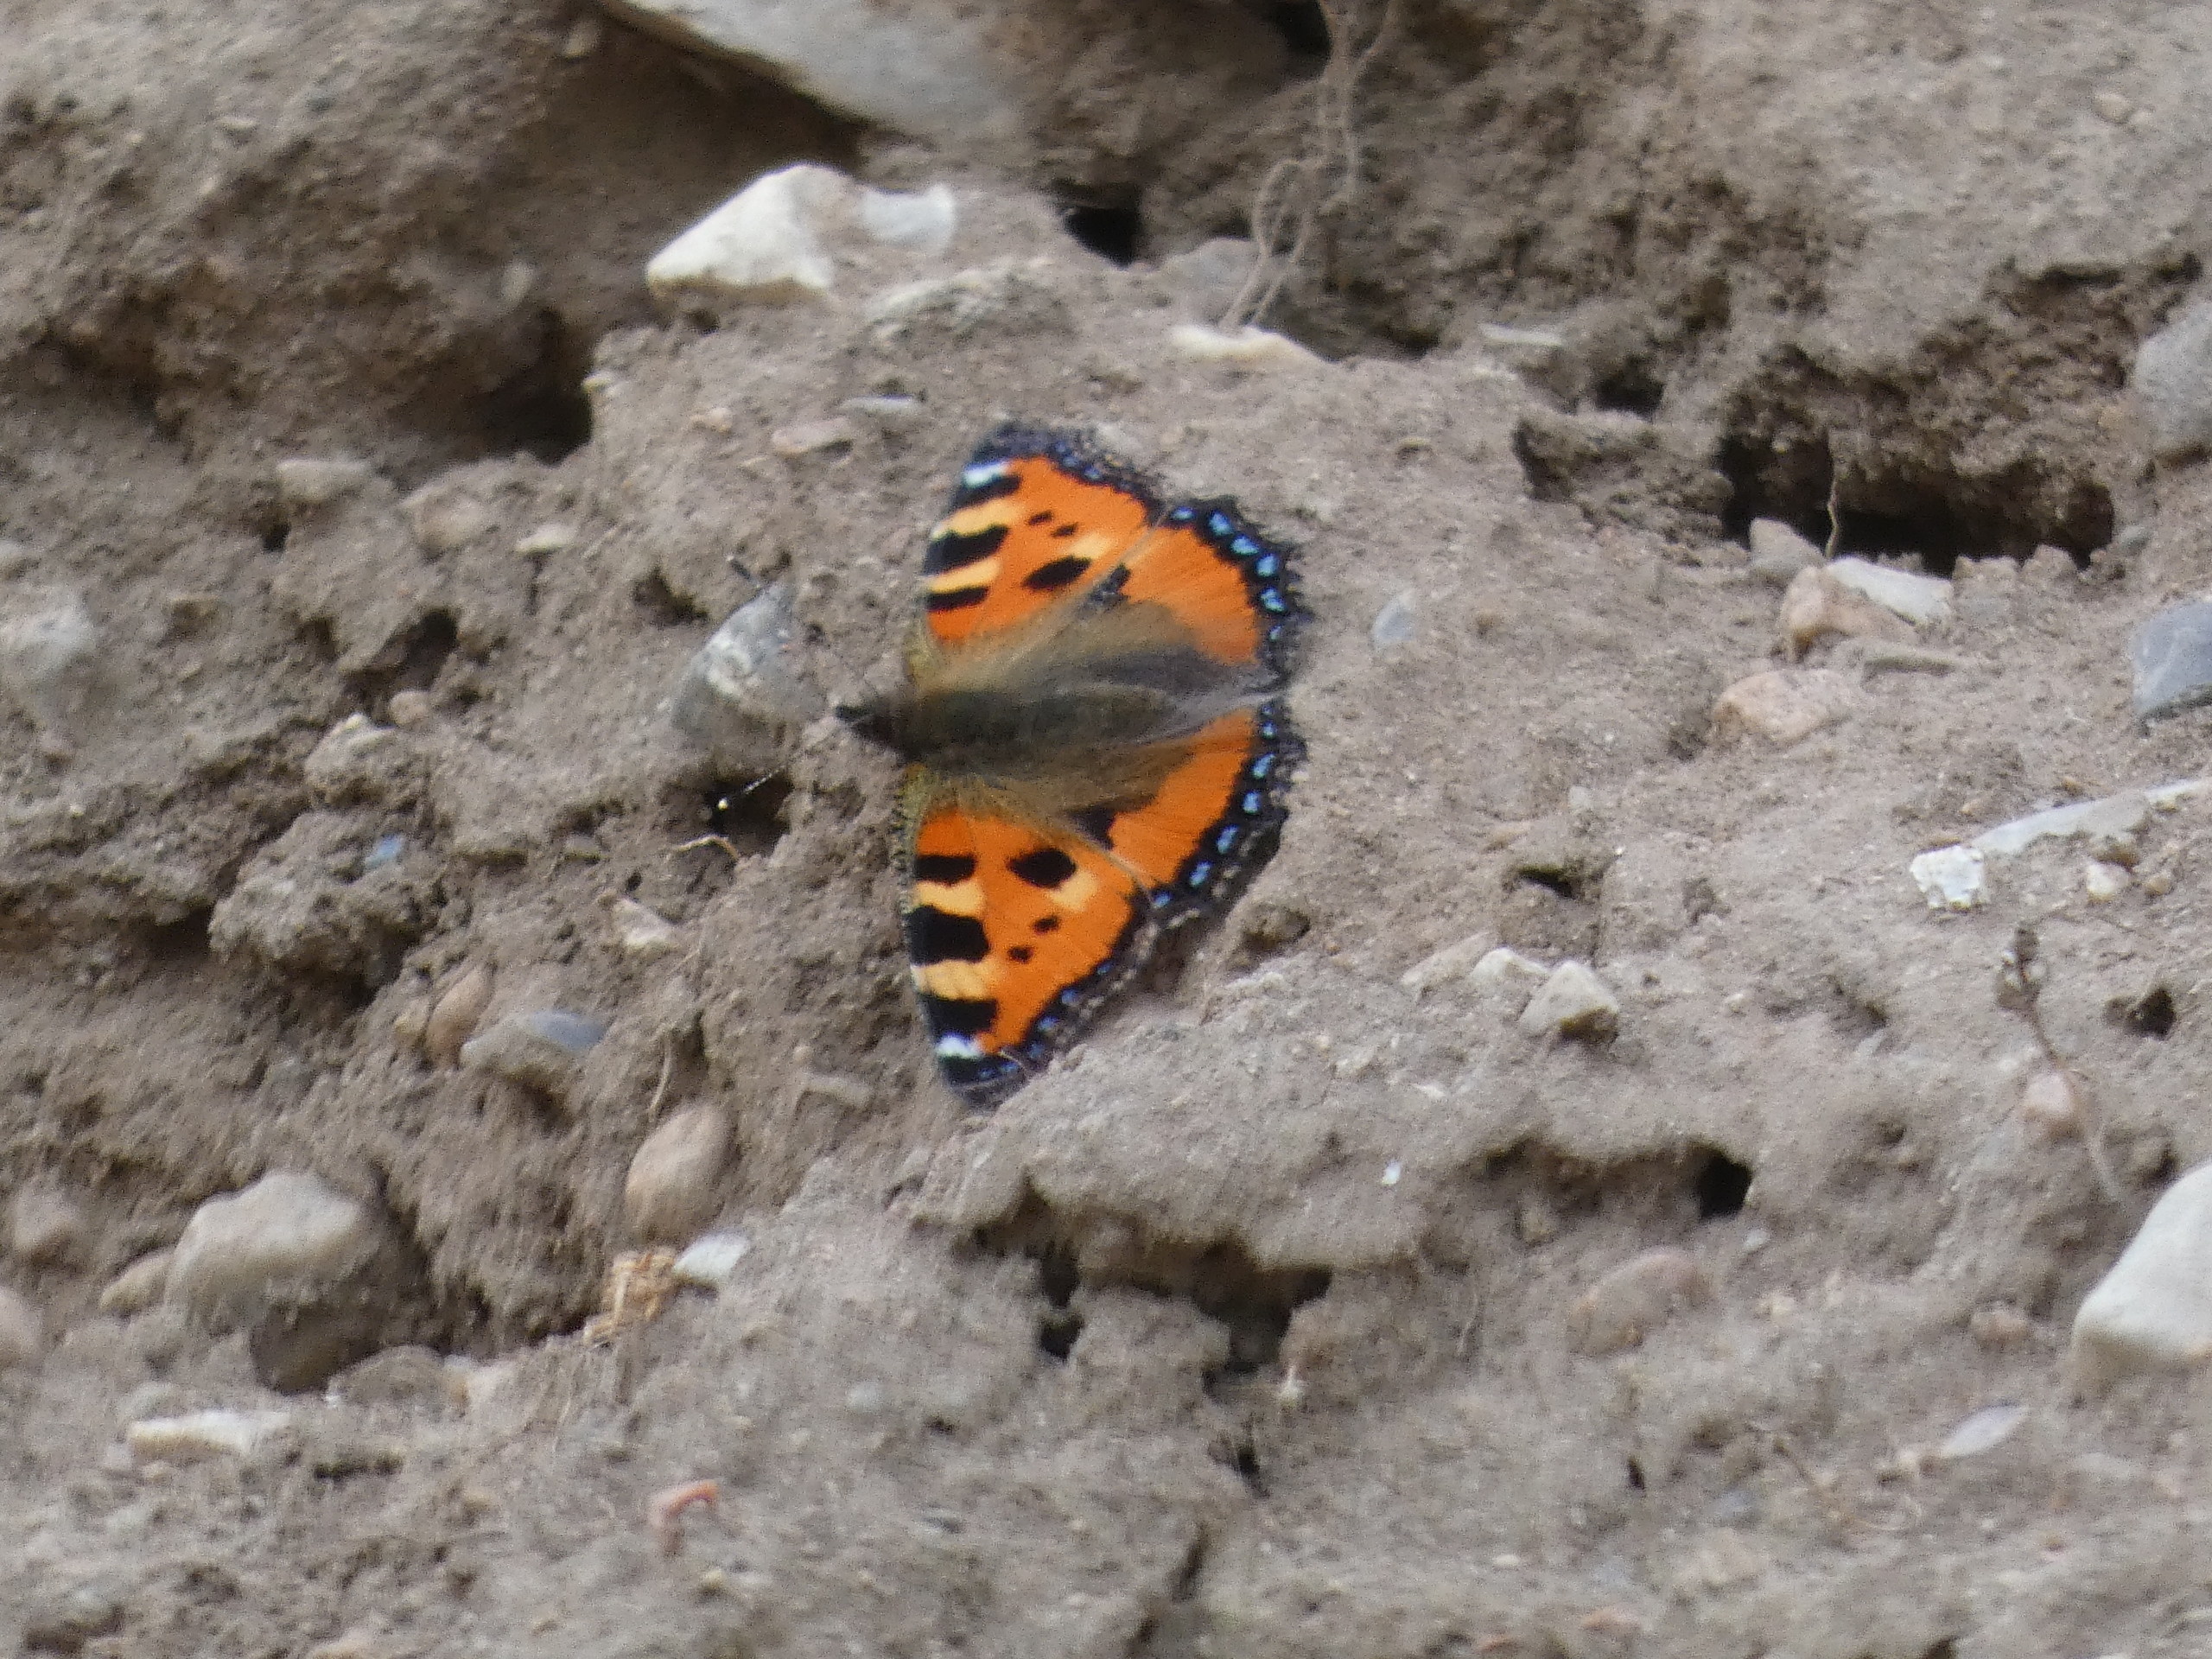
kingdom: Animalia
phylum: Arthropoda
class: Insecta
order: Lepidoptera
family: Nymphalidae
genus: Aglais
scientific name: Aglais urticae
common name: Nældens takvinge
